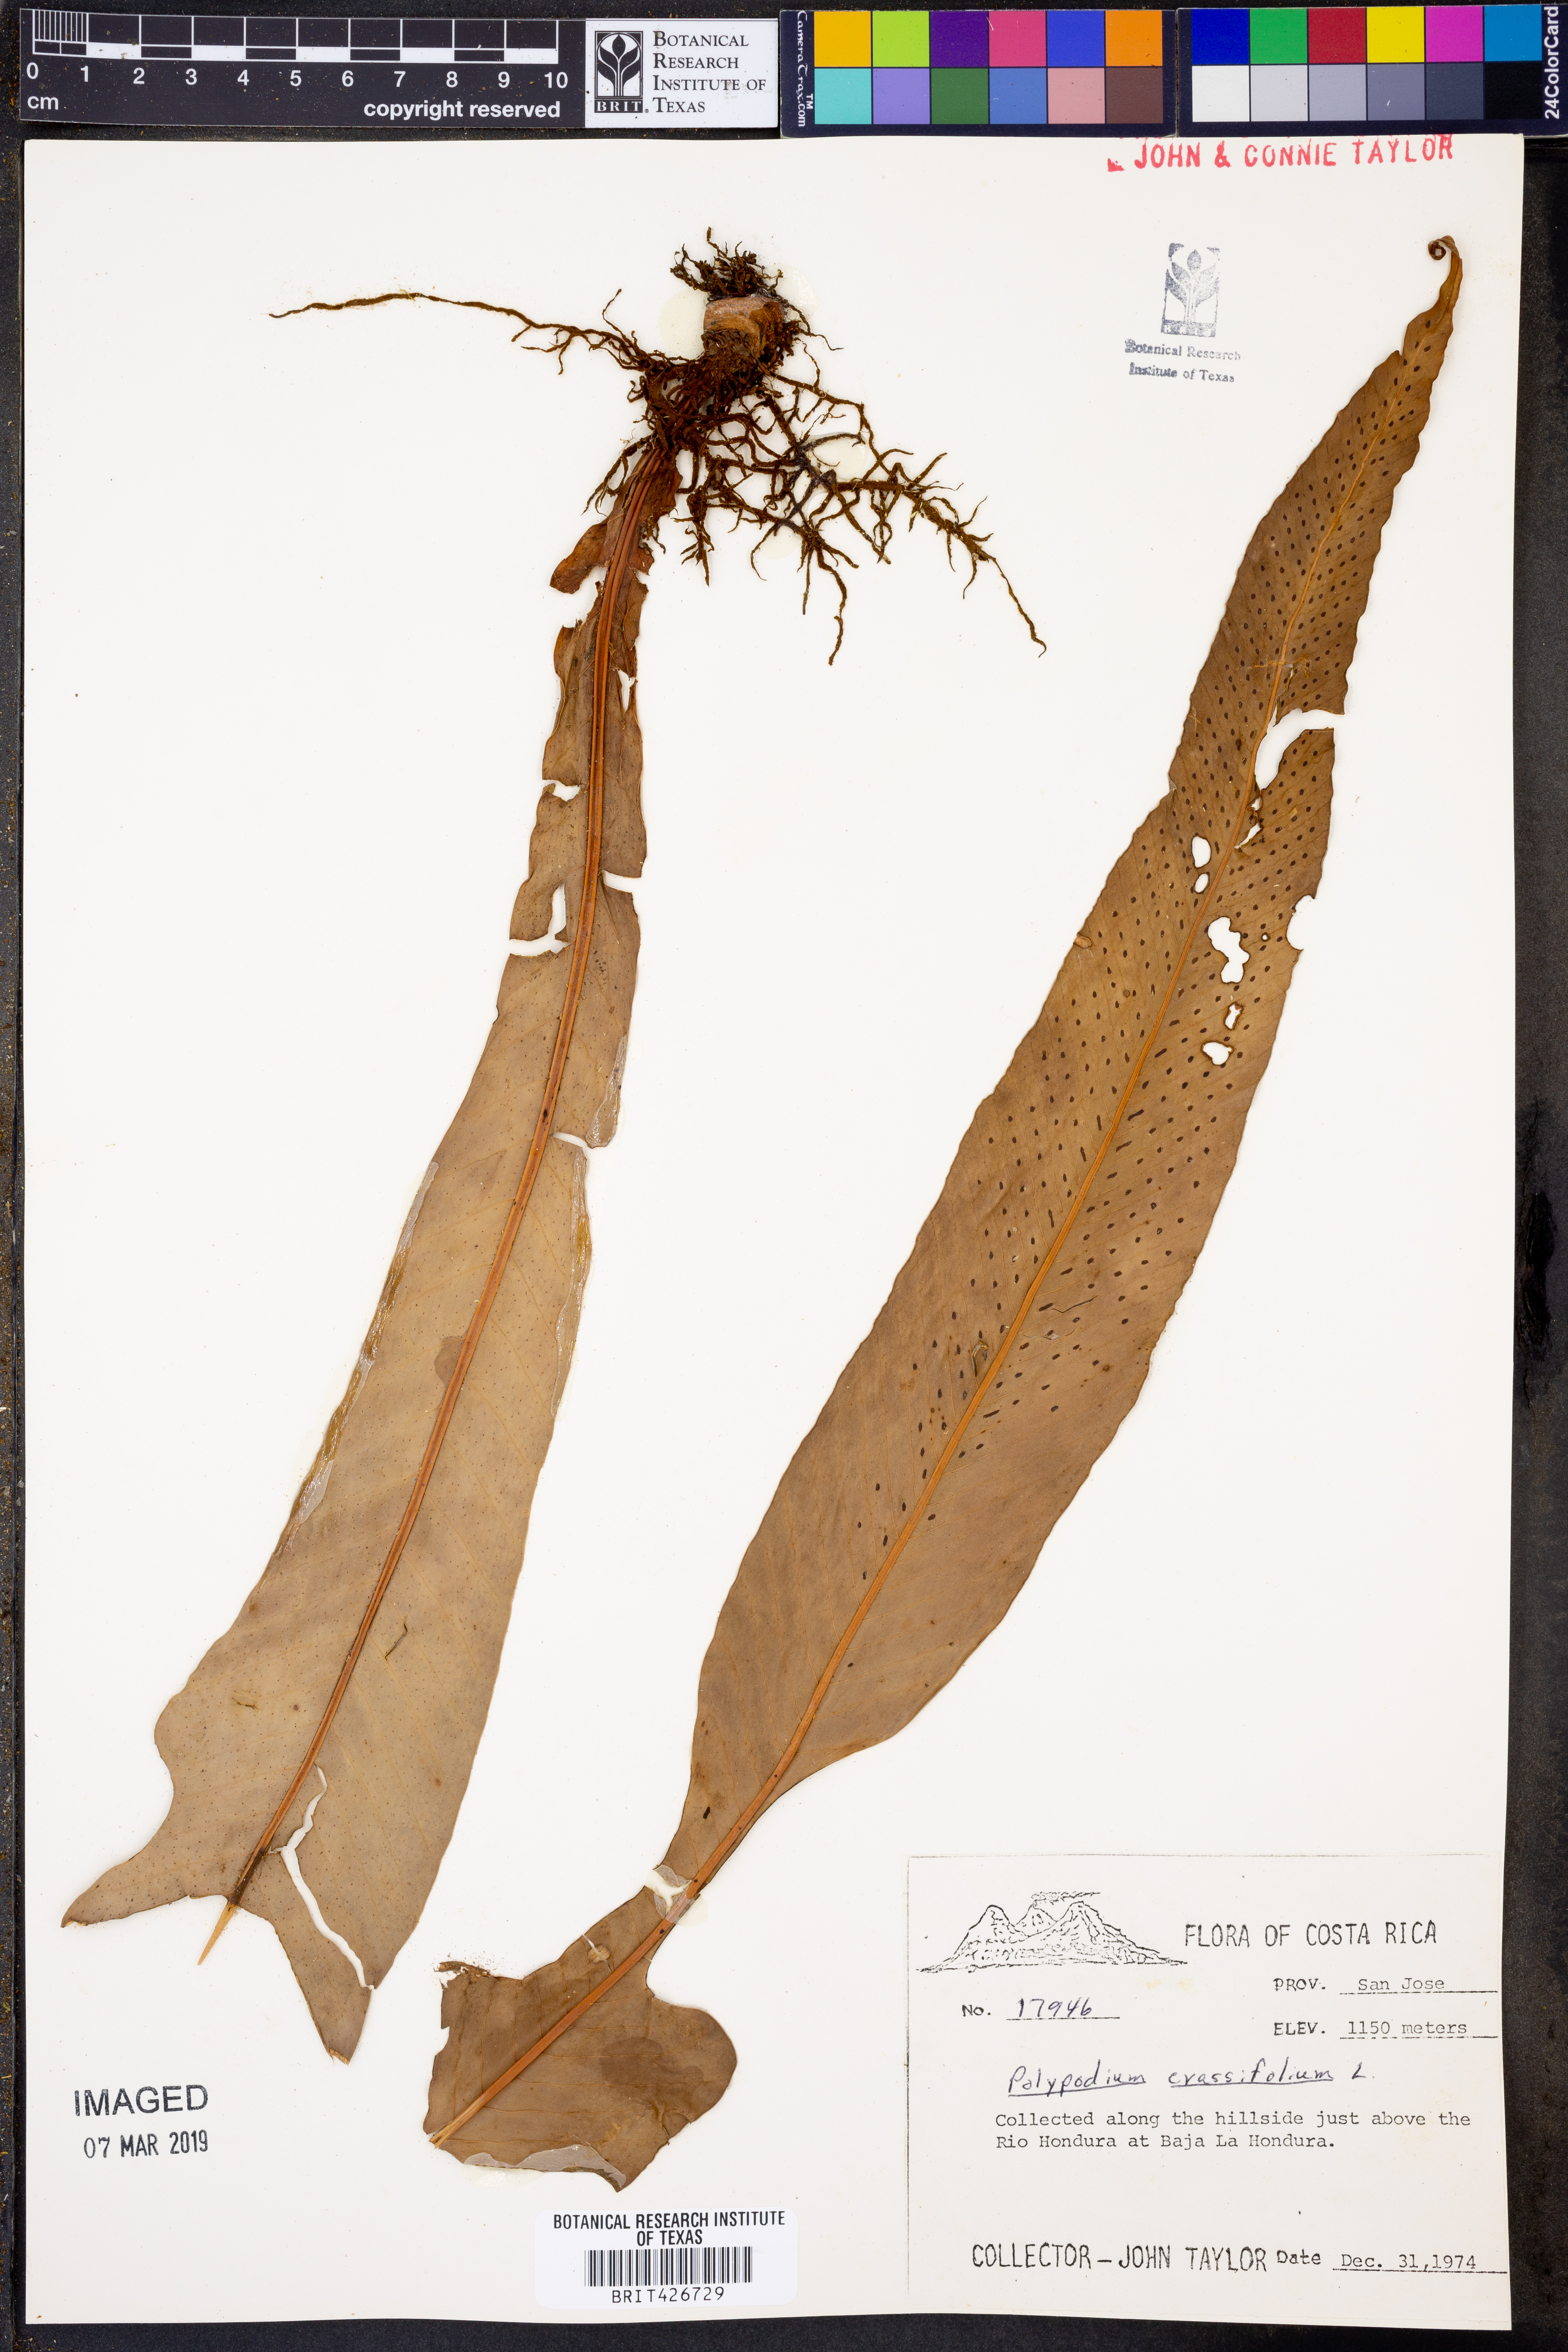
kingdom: Plantae
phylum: Tracheophyta
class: Polypodiopsida
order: Polypodiales
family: Polypodiaceae
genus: Niphidium
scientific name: Niphidium crassifolium
